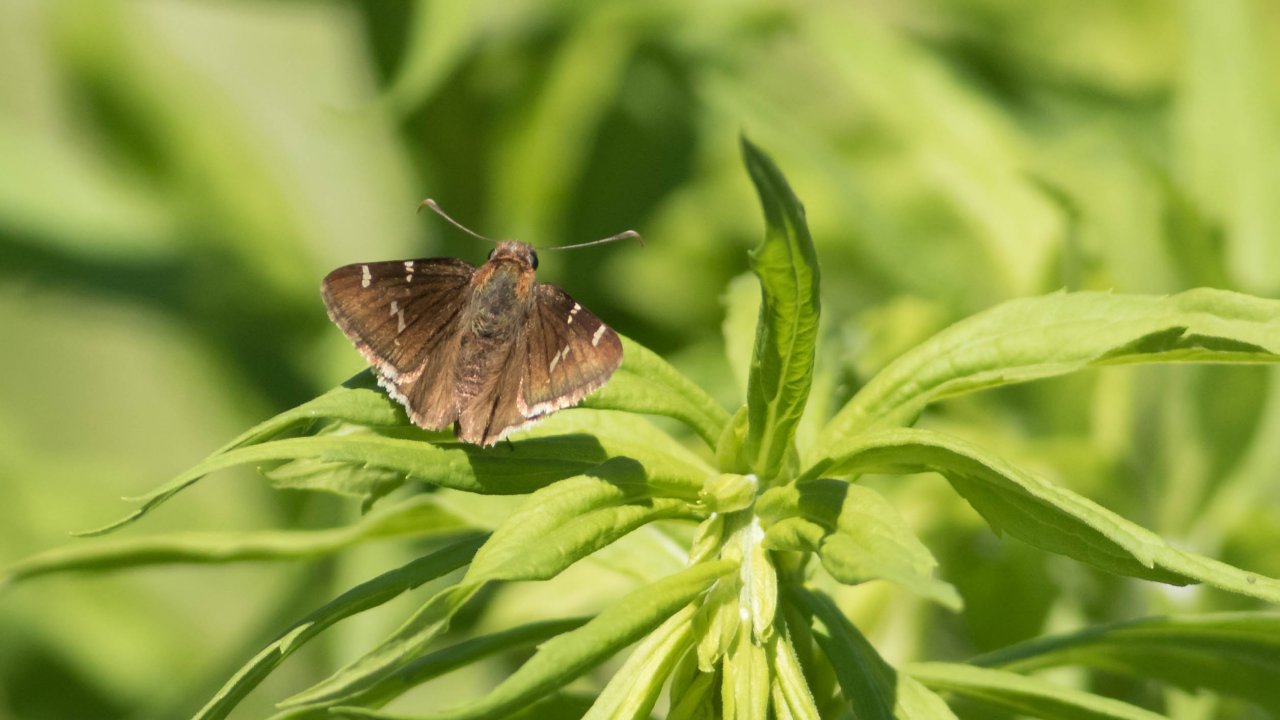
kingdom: Animalia
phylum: Arthropoda
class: Insecta
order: Lepidoptera
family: Hesperiidae
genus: Autochton
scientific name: Autochton
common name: Southern Cloudywing
